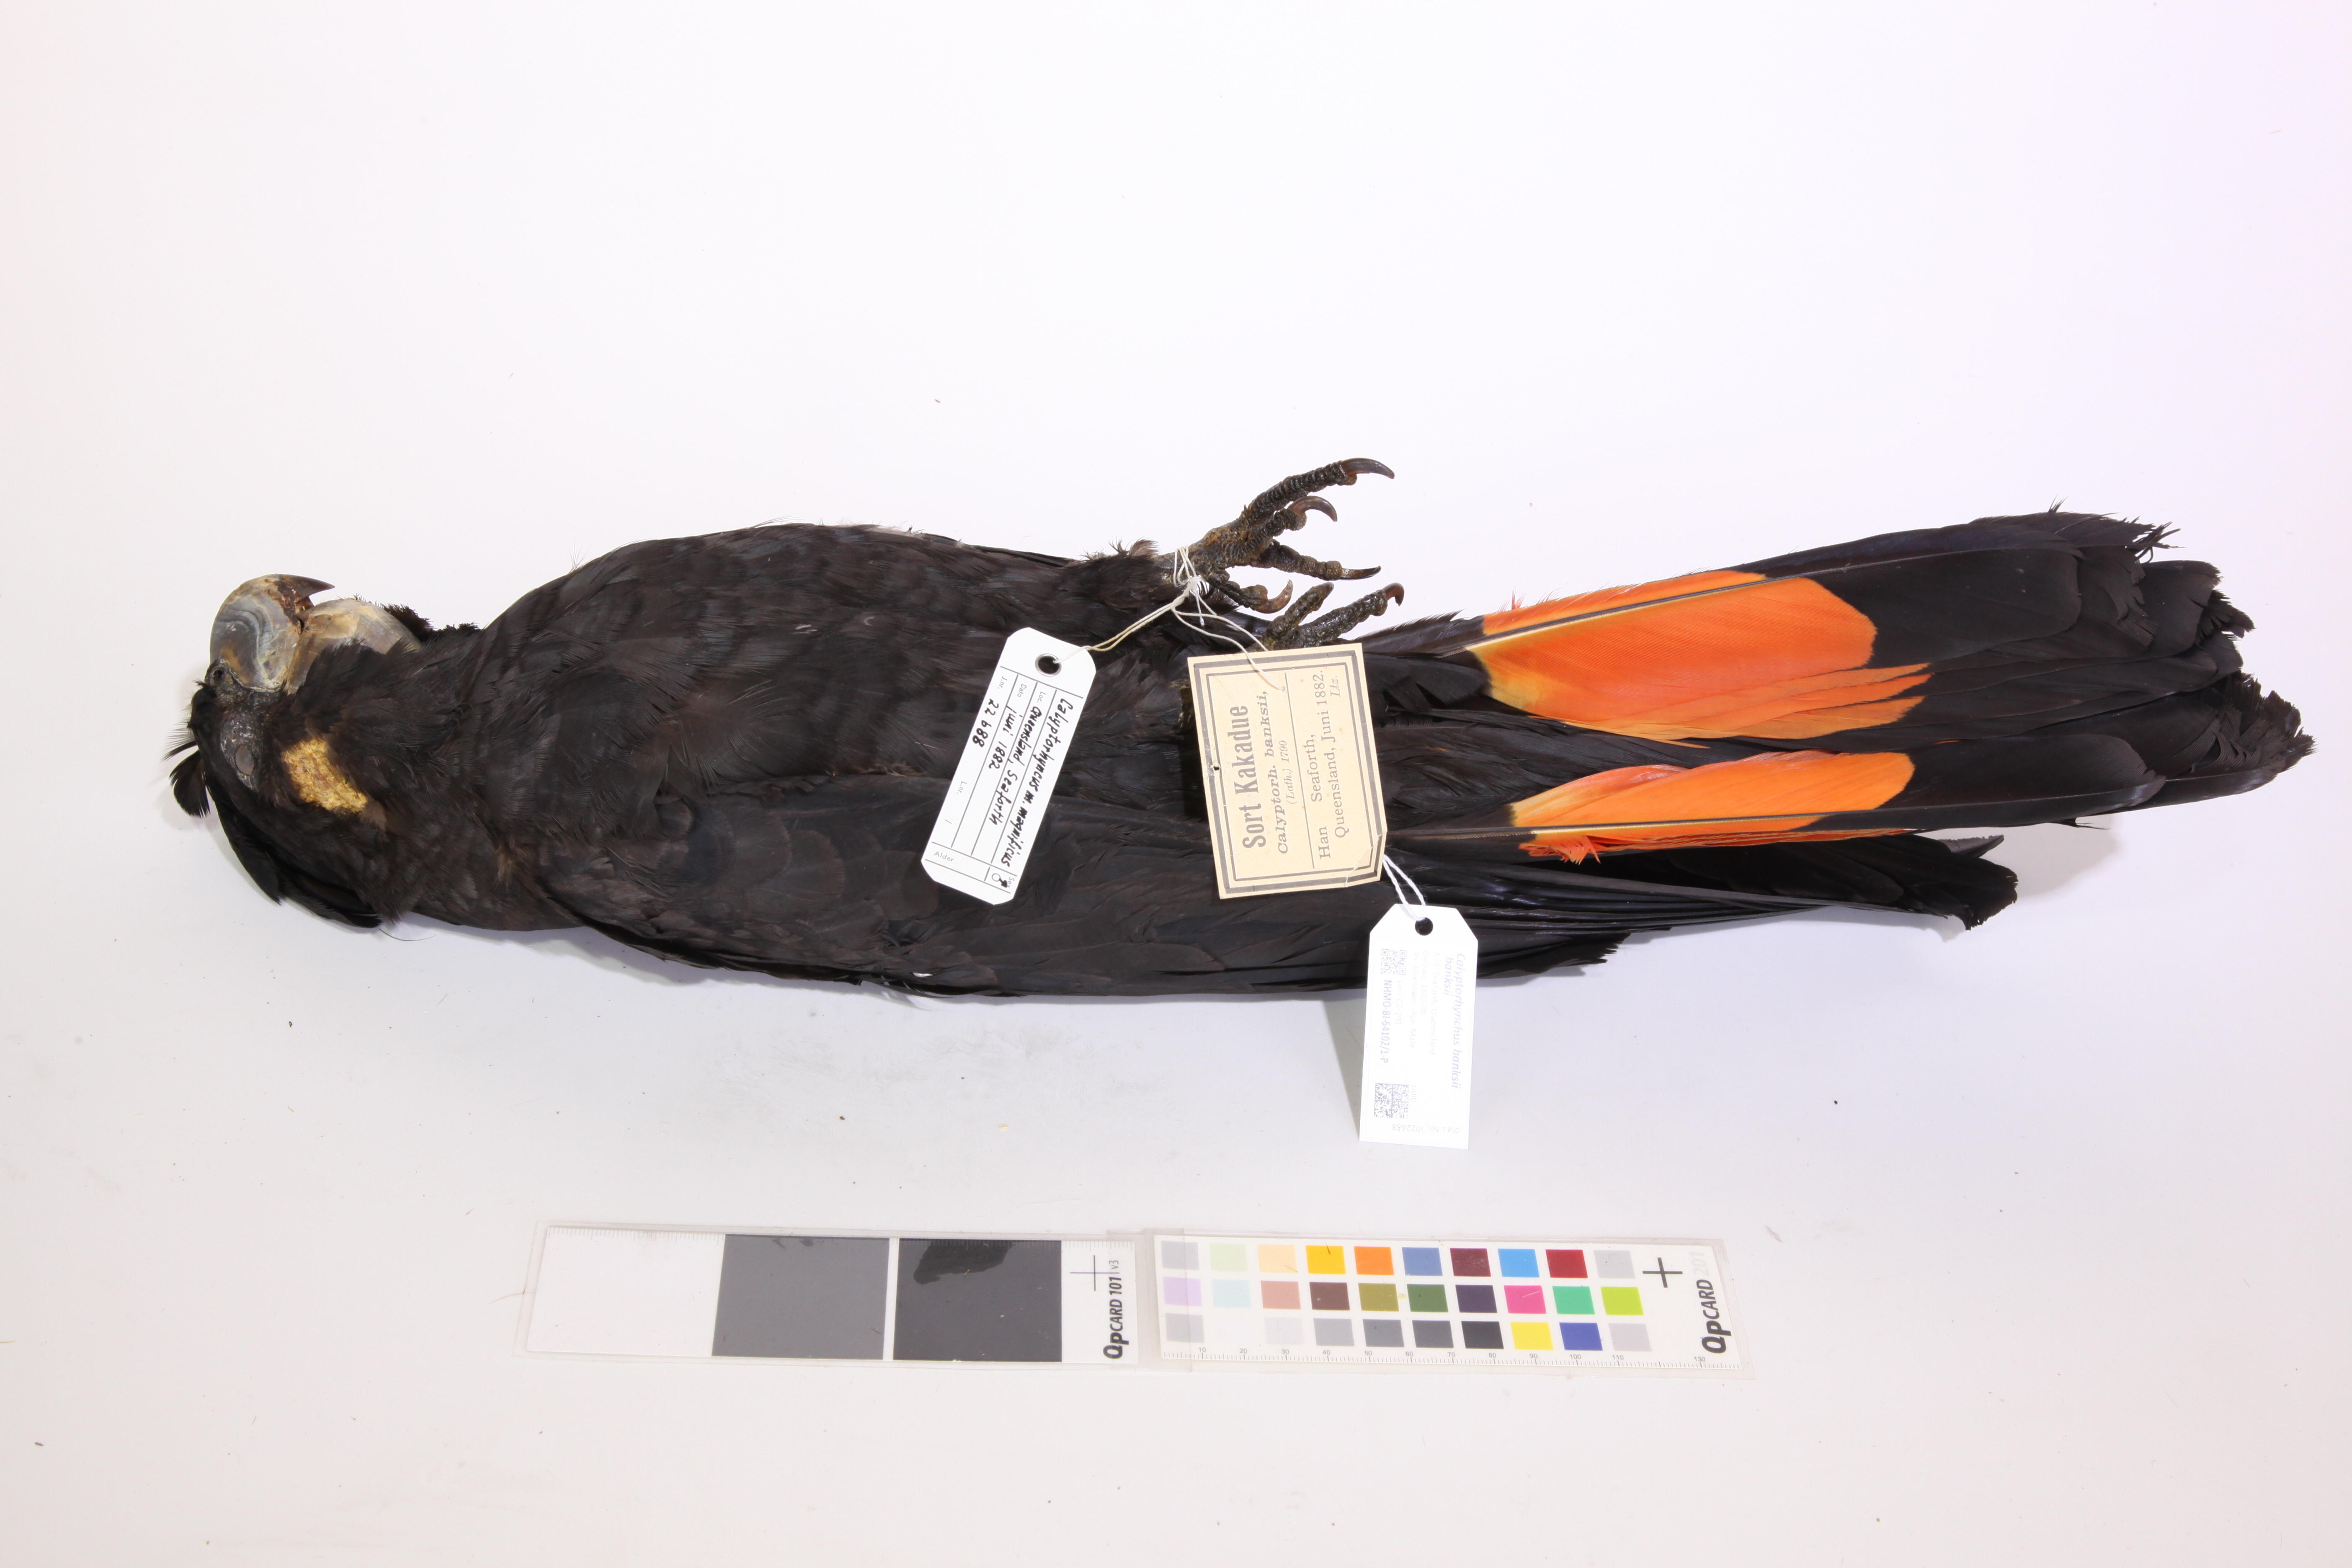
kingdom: Animalia
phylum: Chordata
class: Aves
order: Psittaciformes
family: Psittacidae
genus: Calyptorhynchus
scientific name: Calyptorhynchus banksii
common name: Red-tailed black cockatoo
